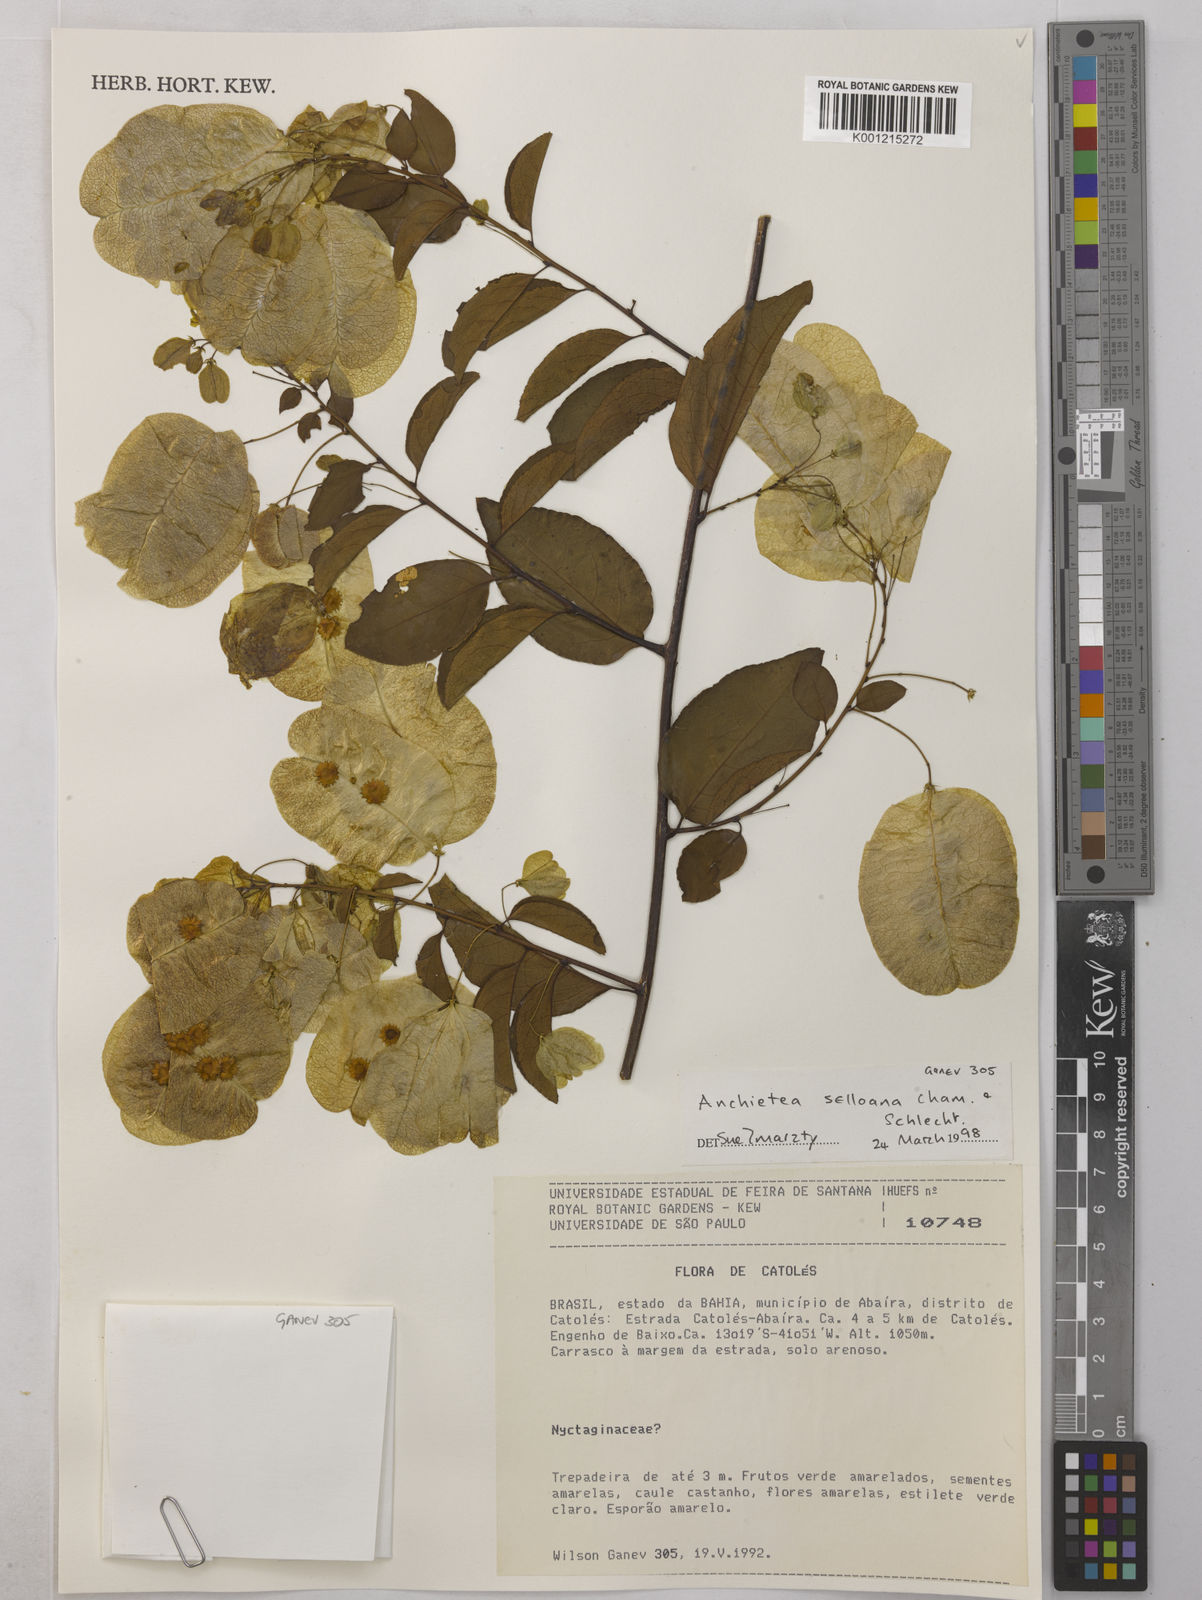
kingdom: Plantae
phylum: Tracheophyta
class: Magnoliopsida
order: Malpighiales
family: Violaceae
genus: Anchietea
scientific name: Anchietea sellowiana
